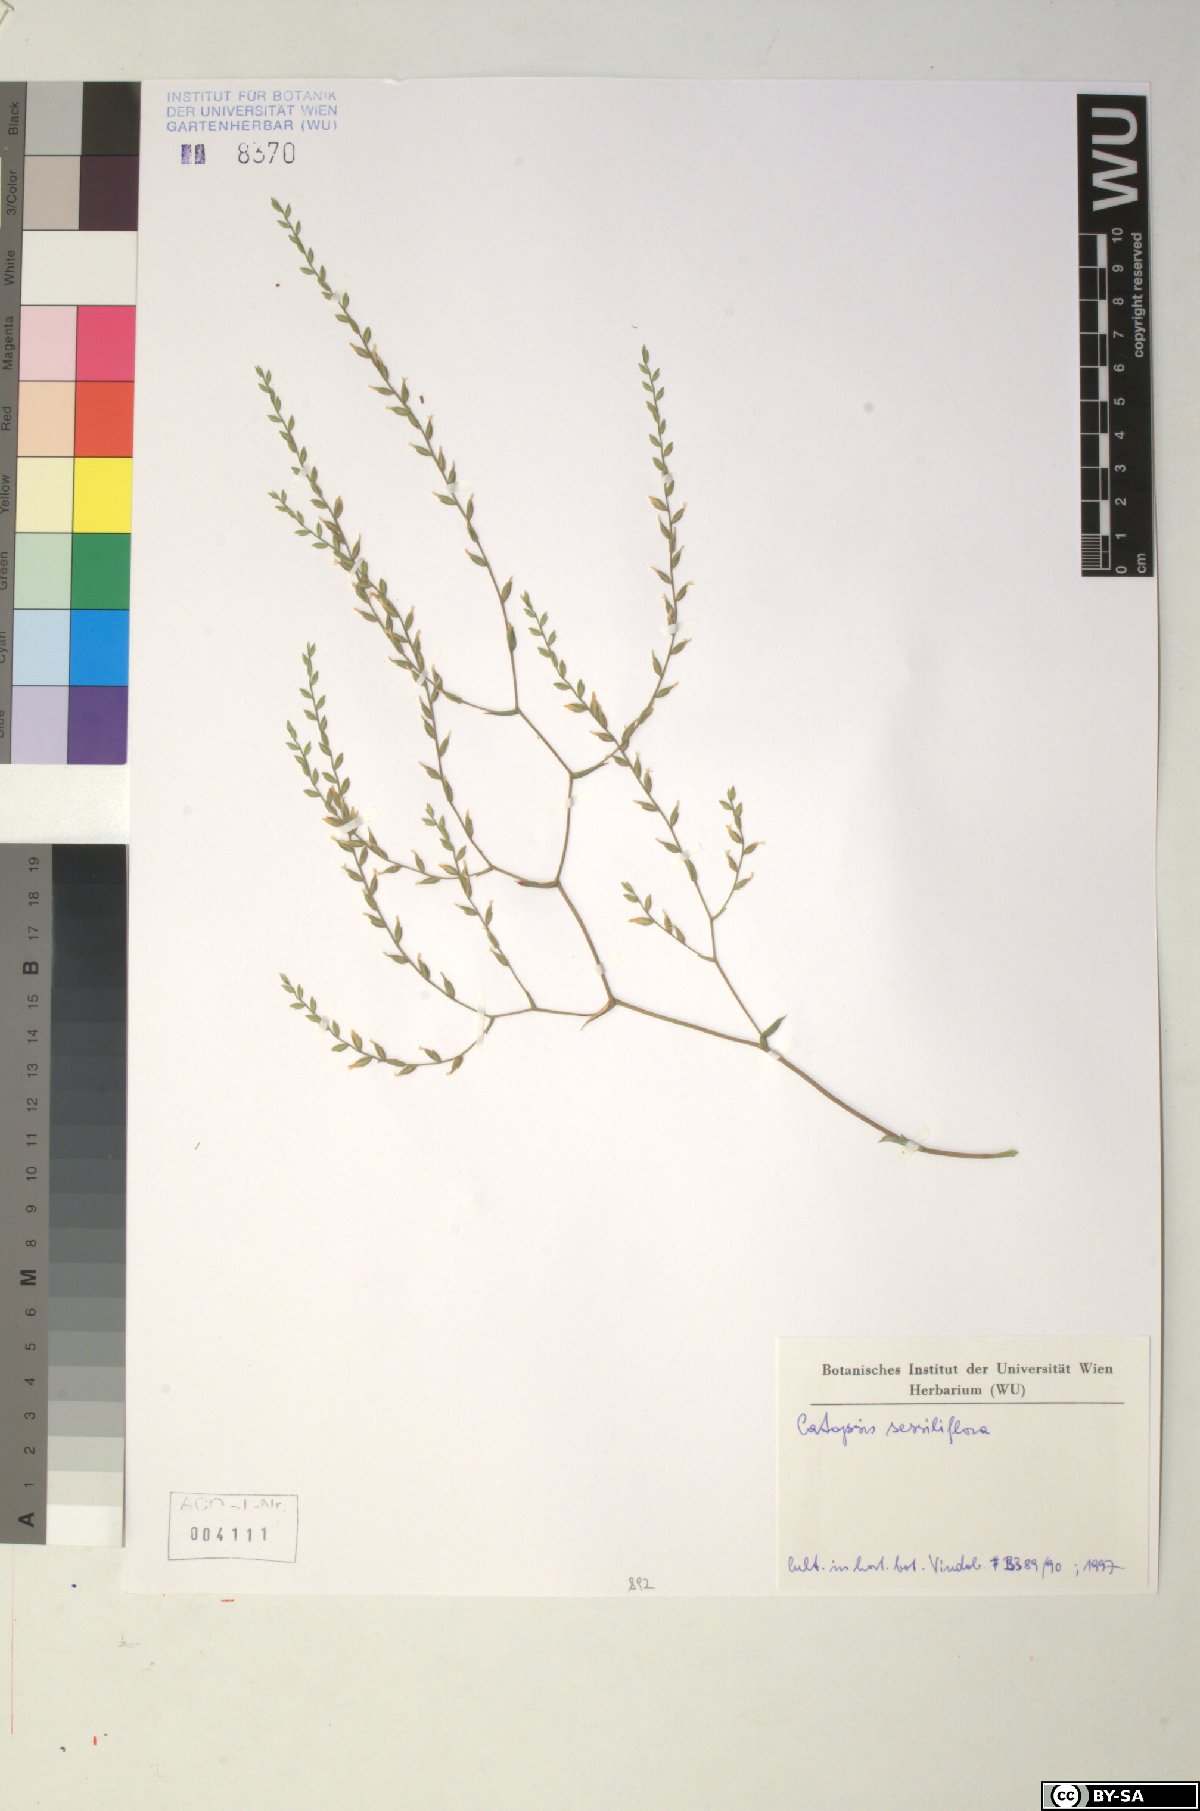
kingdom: Plantae
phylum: Tracheophyta
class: Liliopsida
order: Poales
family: Bromeliaceae
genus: Catopsis
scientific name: Catopsis sessiliflora
